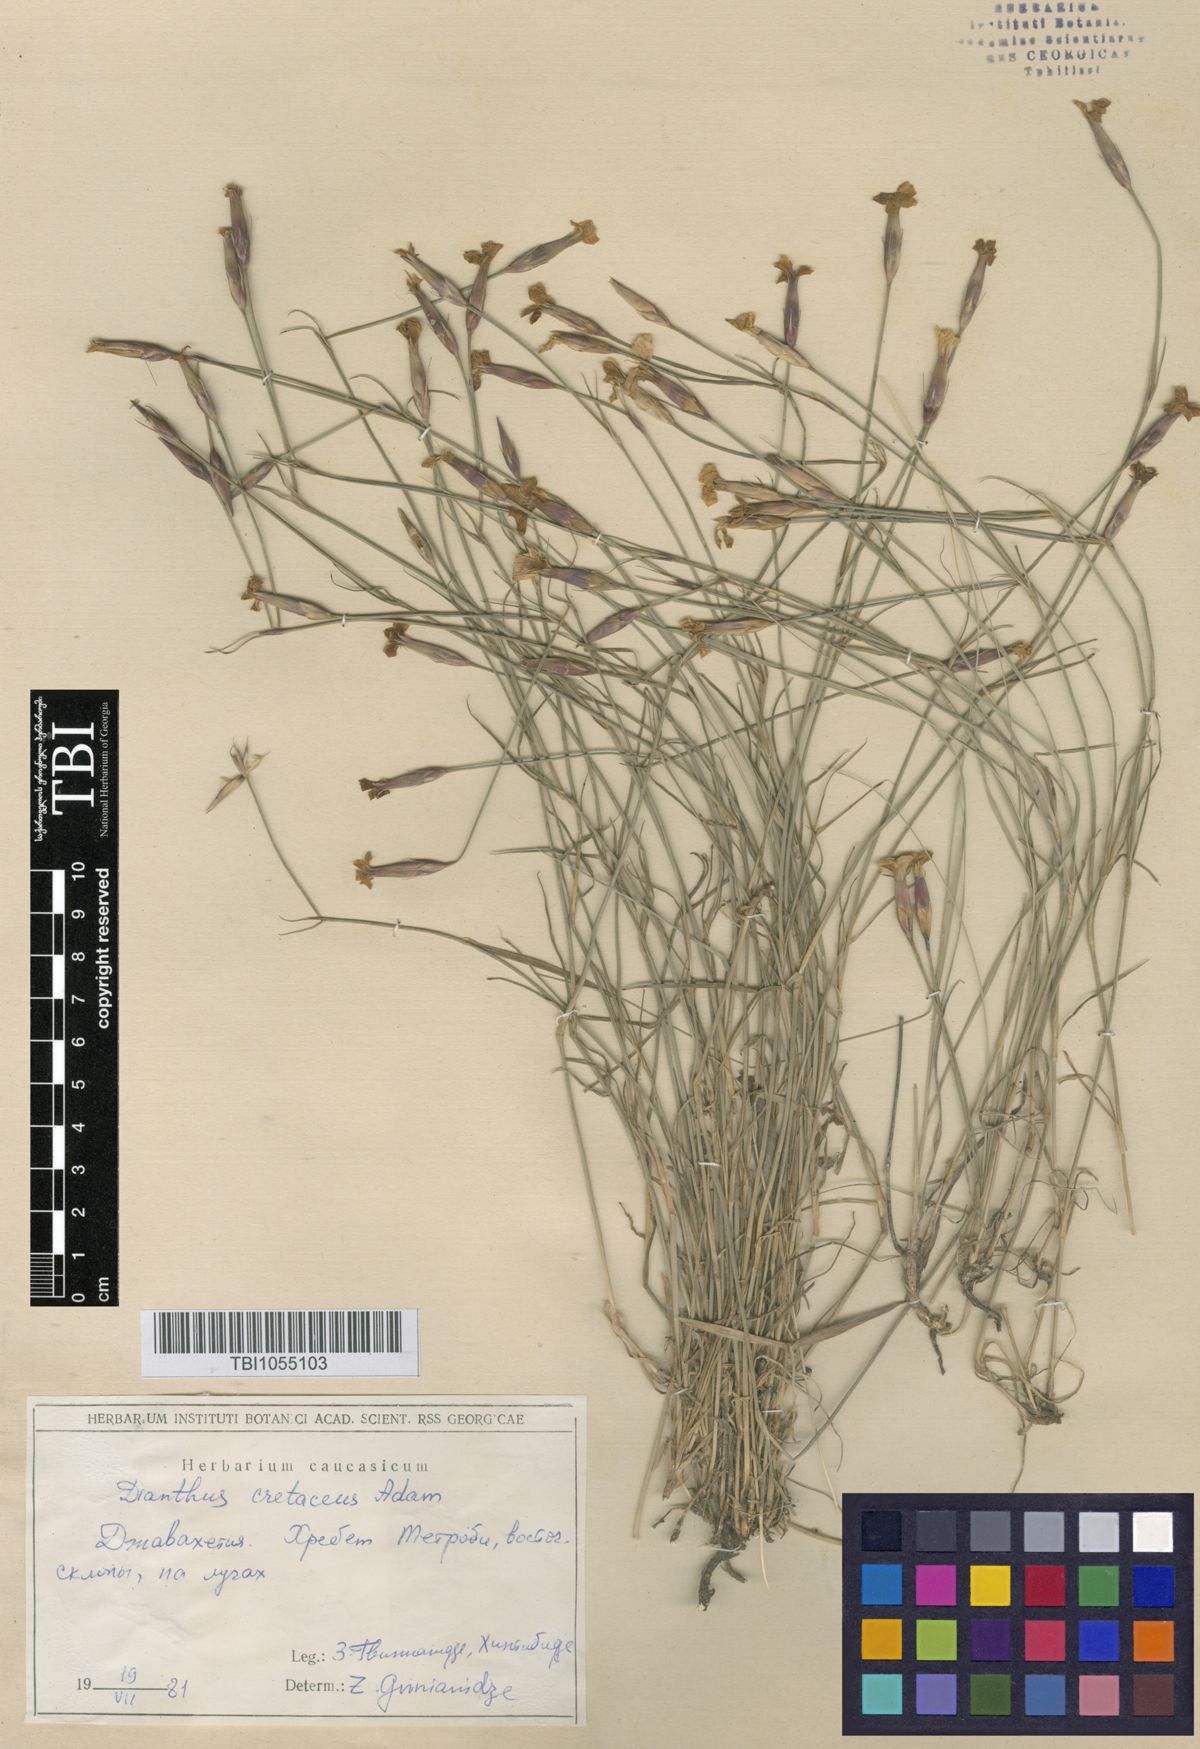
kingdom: Plantae
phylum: Tracheophyta
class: Magnoliopsida
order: Caryophyllales
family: Caryophyllaceae
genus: Dianthus
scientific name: Dianthus cretaceus
